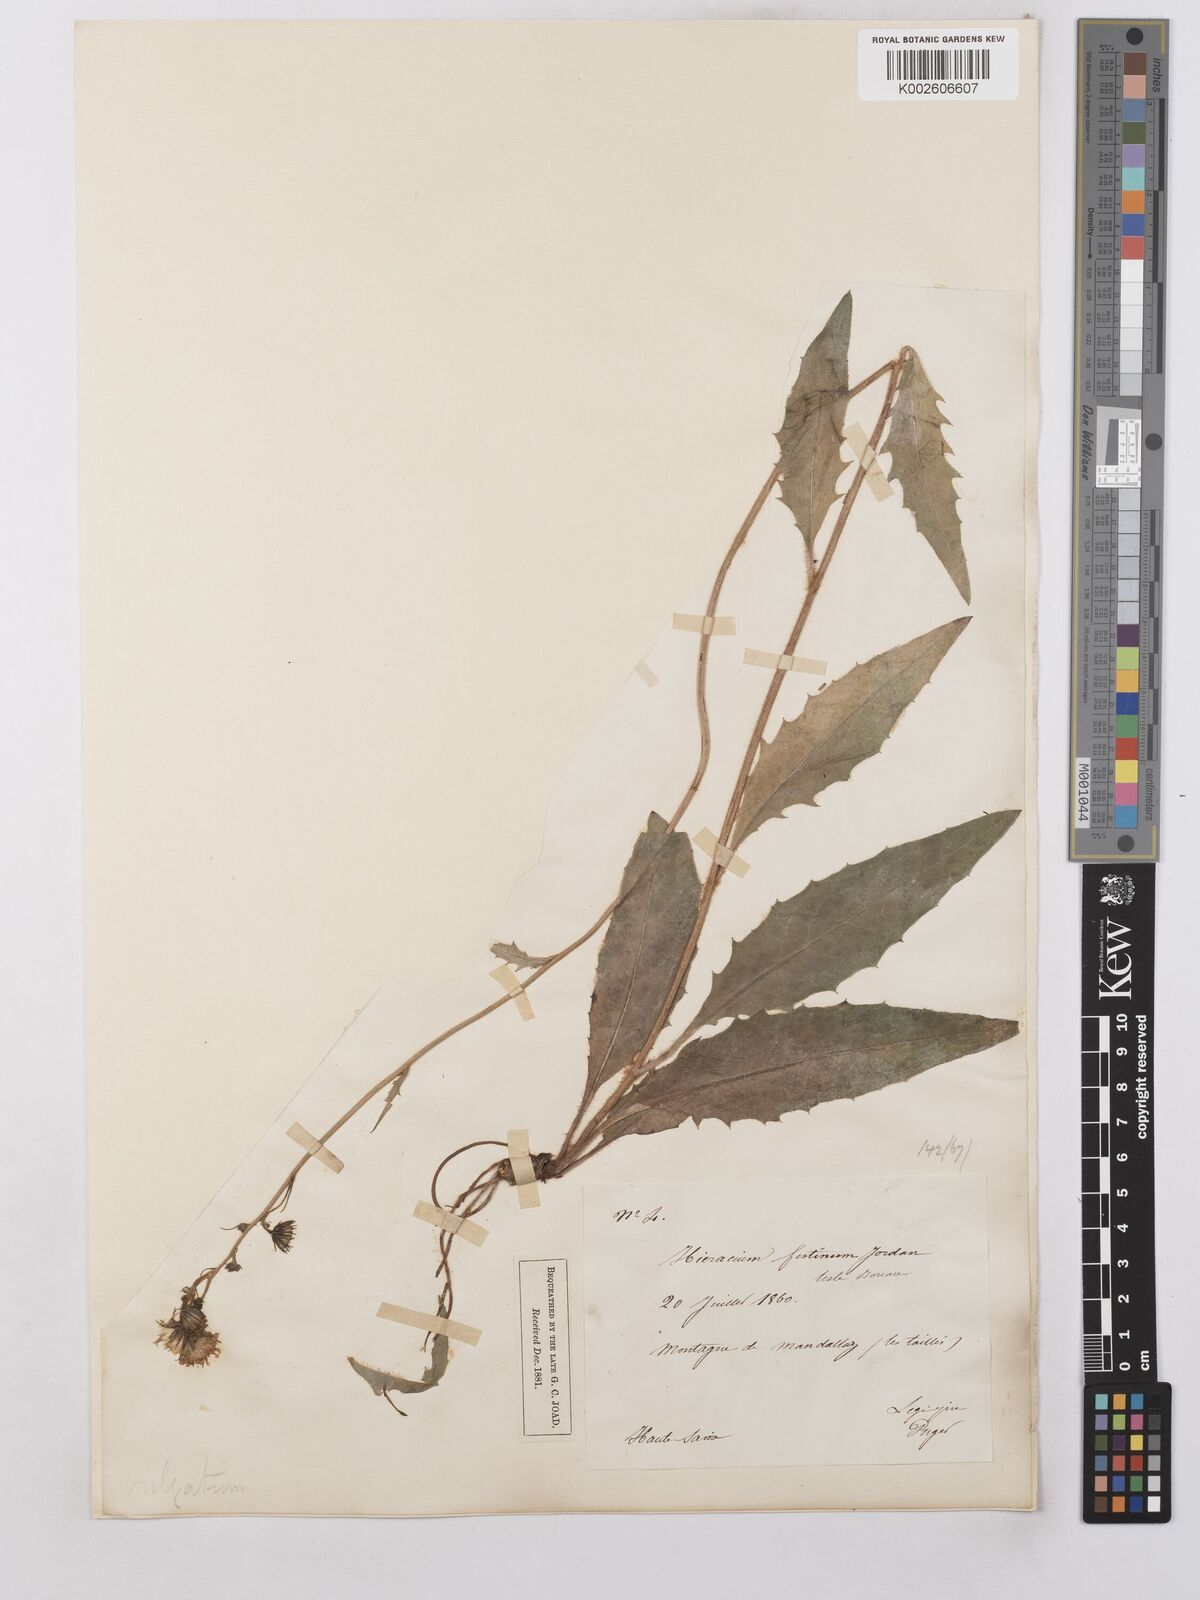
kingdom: Plantae
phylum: Tracheophyta
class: Magnoliopsida
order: Asterales
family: Asteraceae
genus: Hieracium
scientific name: Hieracium lachenalii
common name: Common hawkweed
